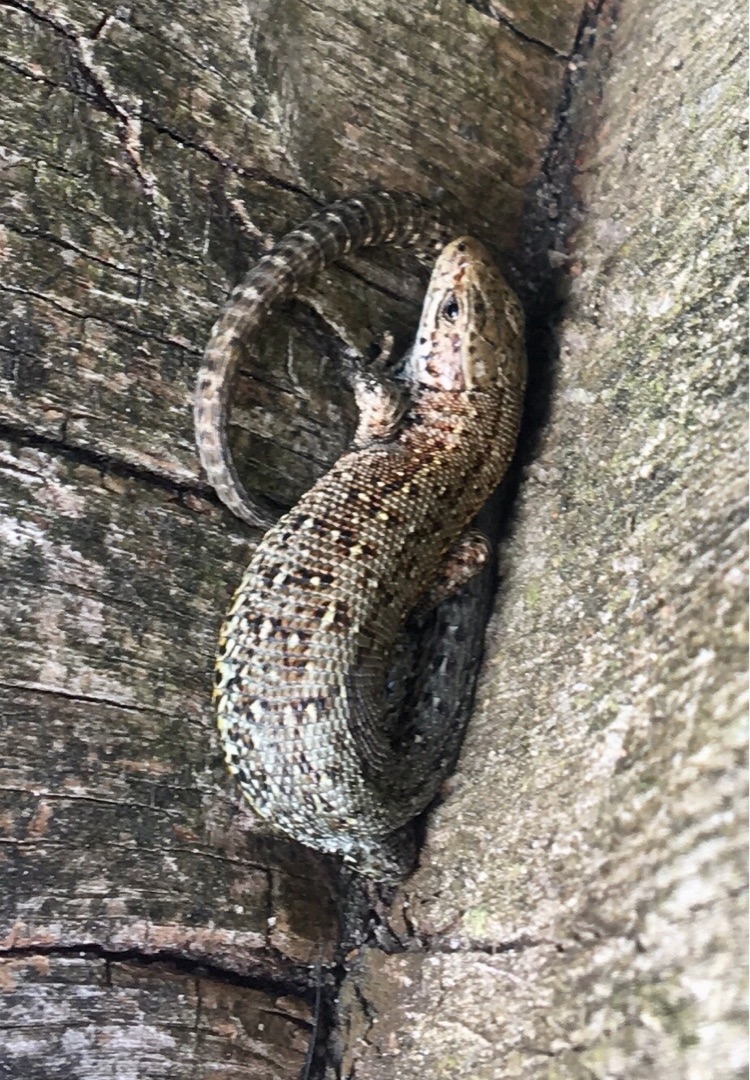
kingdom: Animalia
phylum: Chordata
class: Squamata
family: Lacertidae
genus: Zootoca
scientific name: Zootoca vivipara
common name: Skovfirben
